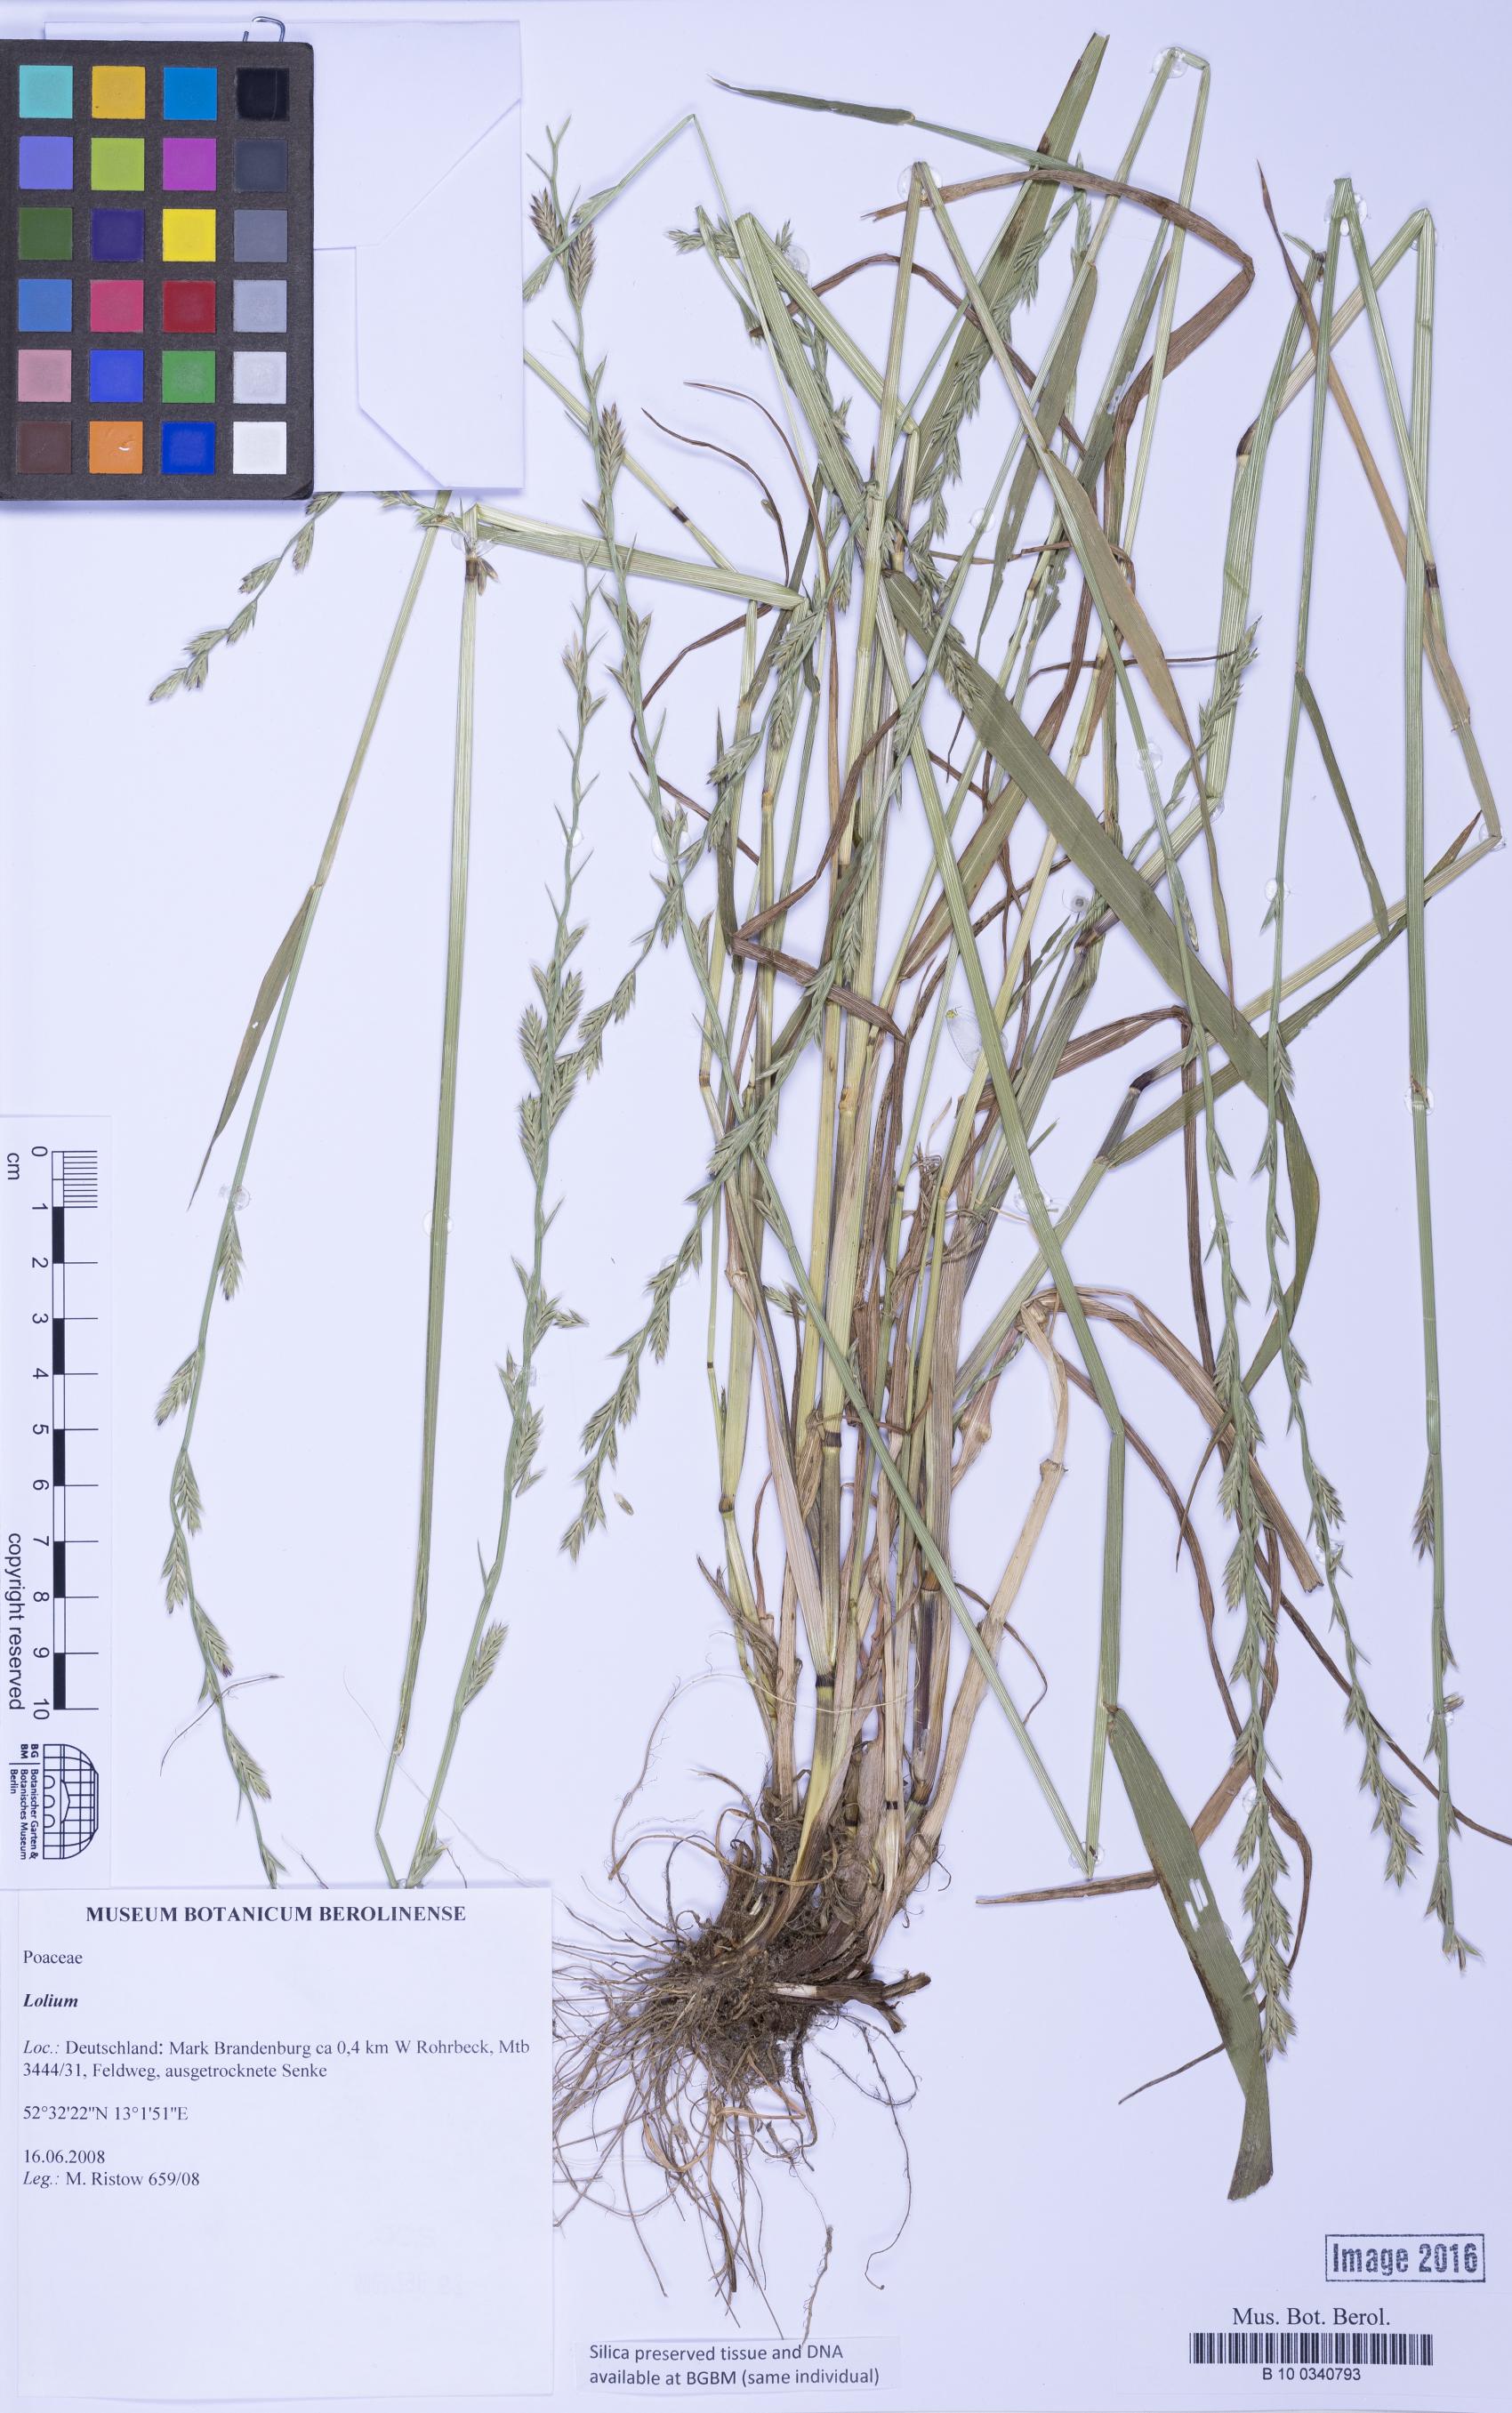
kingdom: Plantae
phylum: Tracheophyta
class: Liliopsida
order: Poales
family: Poaceae
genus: Lolium
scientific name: Lolium
